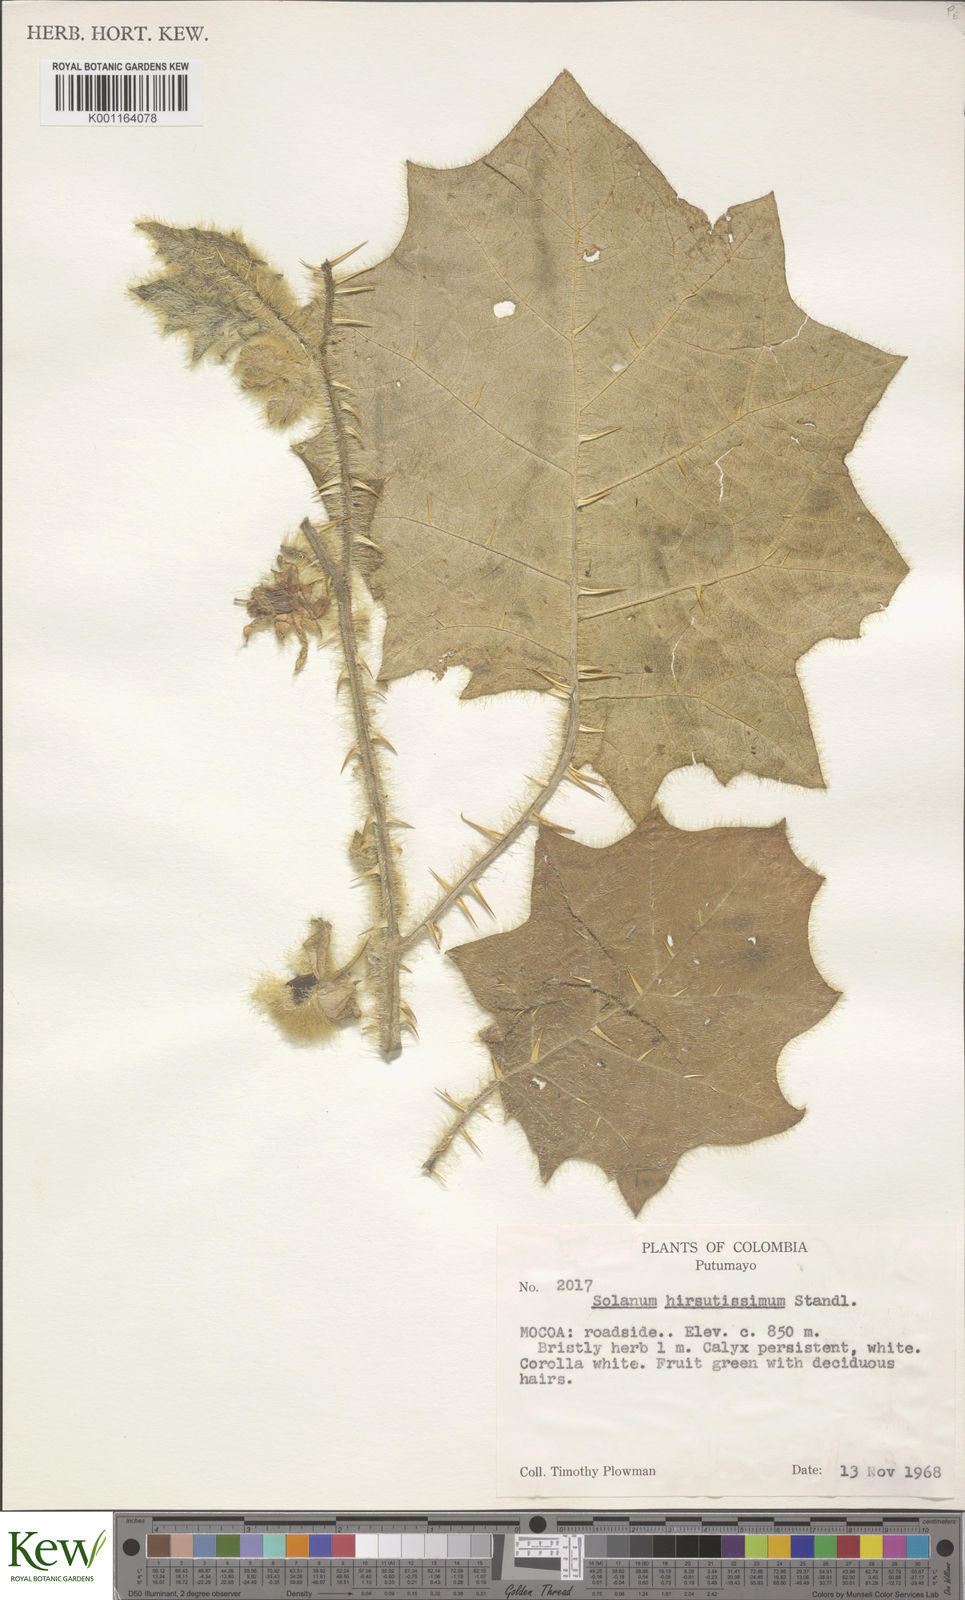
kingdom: Plantae
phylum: Tracheophyta
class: Magnoliopsida
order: Solanales
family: Solanaceae
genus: Solanum
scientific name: Solanum pectinatum
